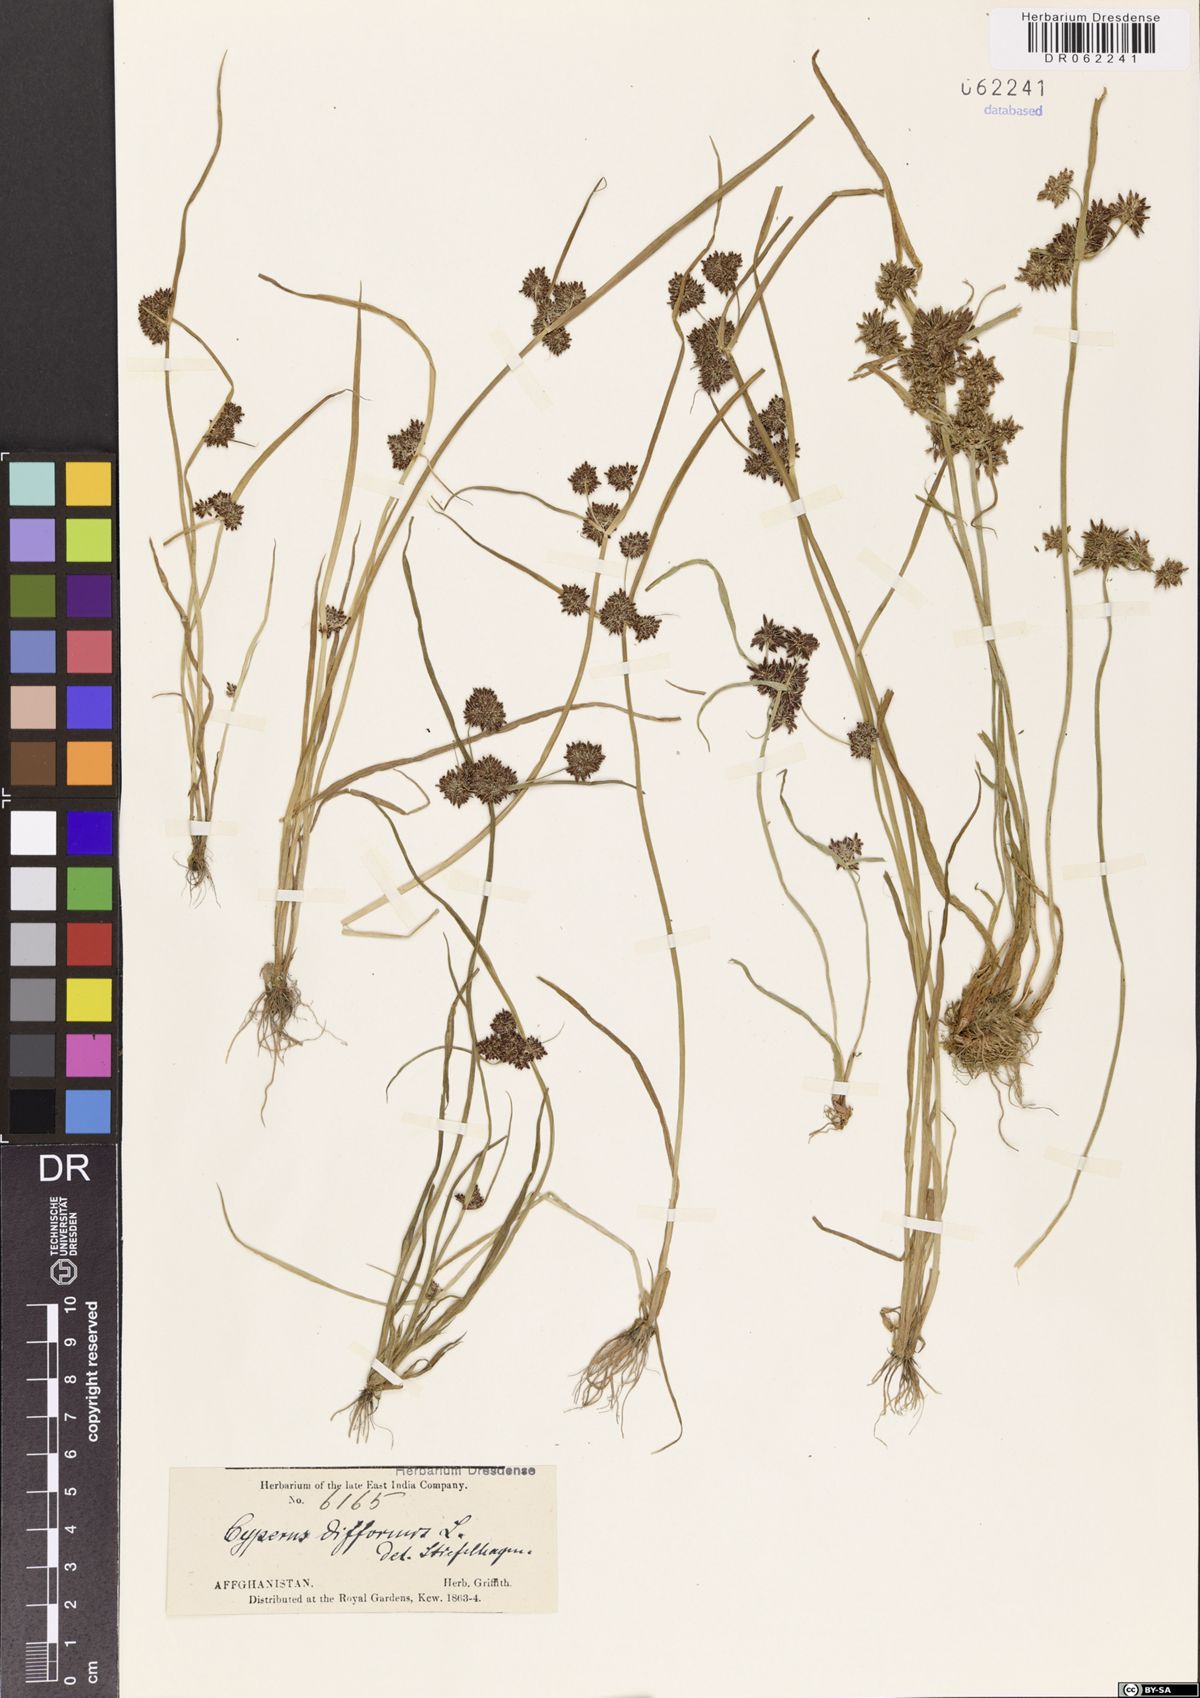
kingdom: Plantae
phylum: Tracheophyta
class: Liliopsida
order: Poales
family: Cyperaceae
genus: Cyperus
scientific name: Cyperus difformis
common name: Variable flatsedge
